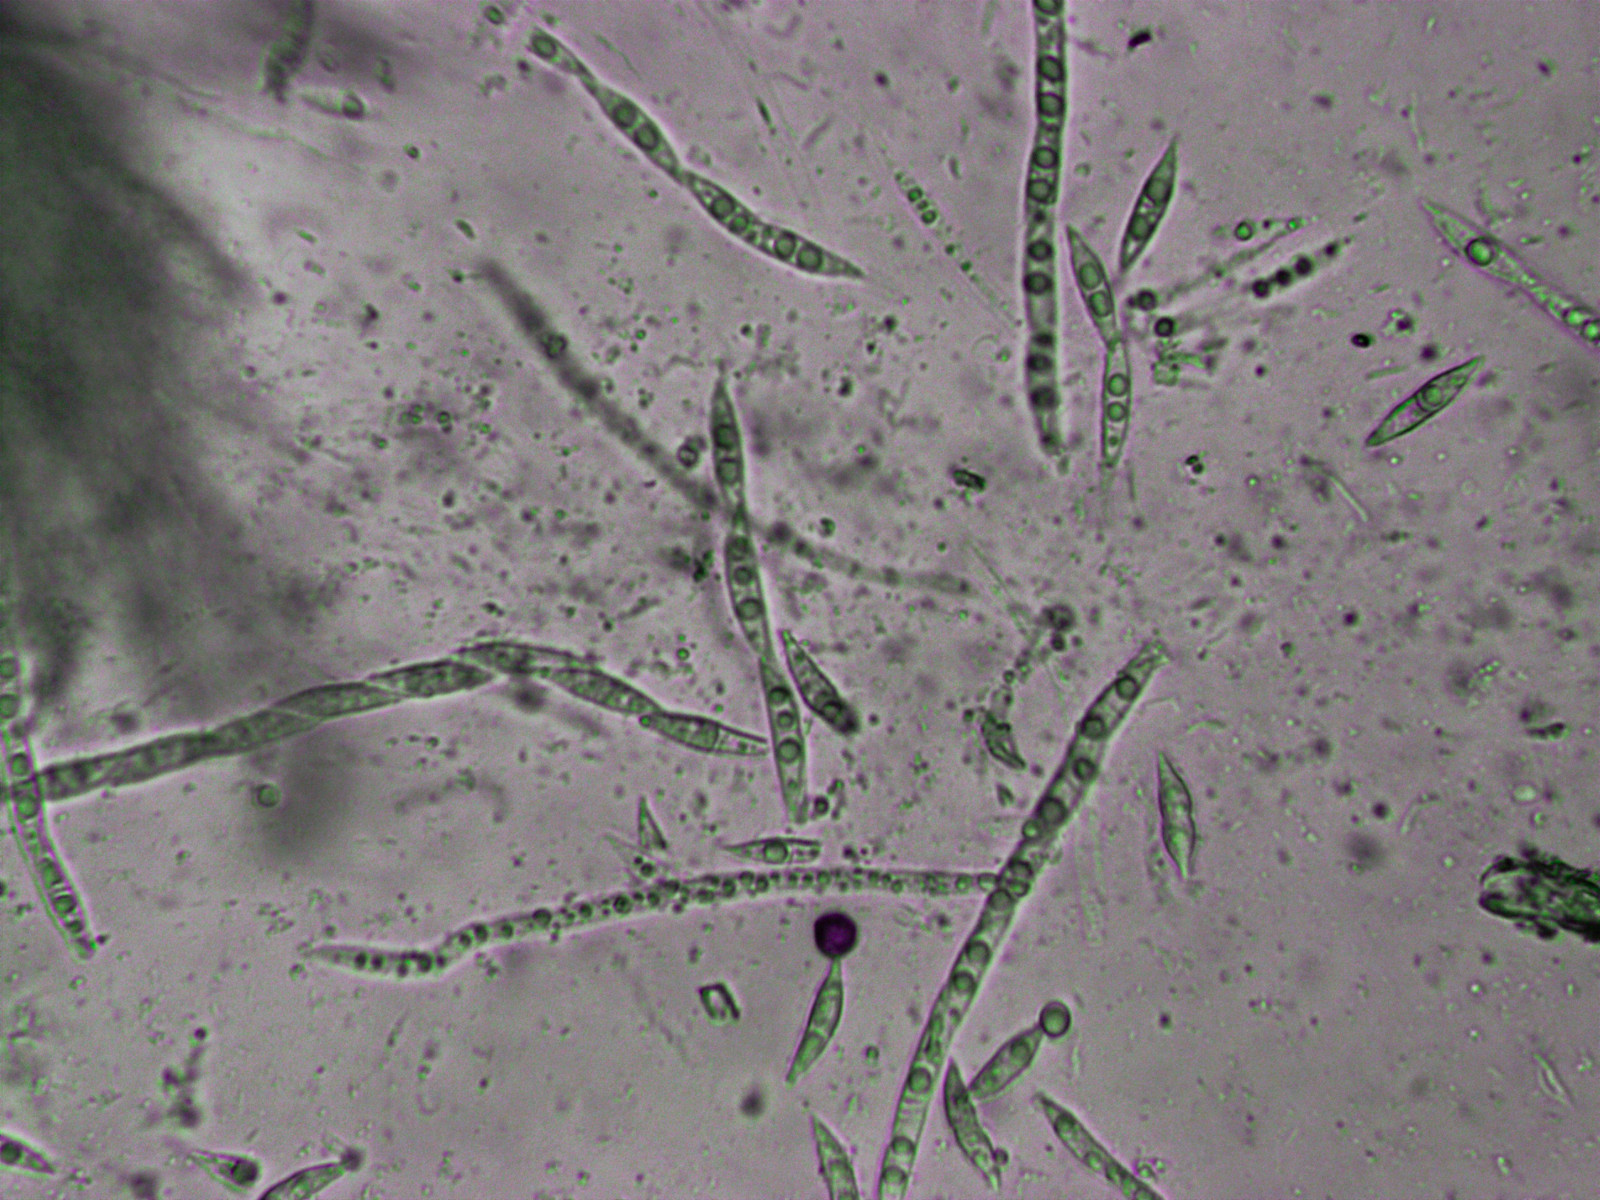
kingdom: Fungi
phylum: Ascomycota
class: Sordariomycetes
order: Hypocreales
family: Hypocreaceae
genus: Hypomyces
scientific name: Hypomyces aurantius
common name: almindelig snylteskorpe
